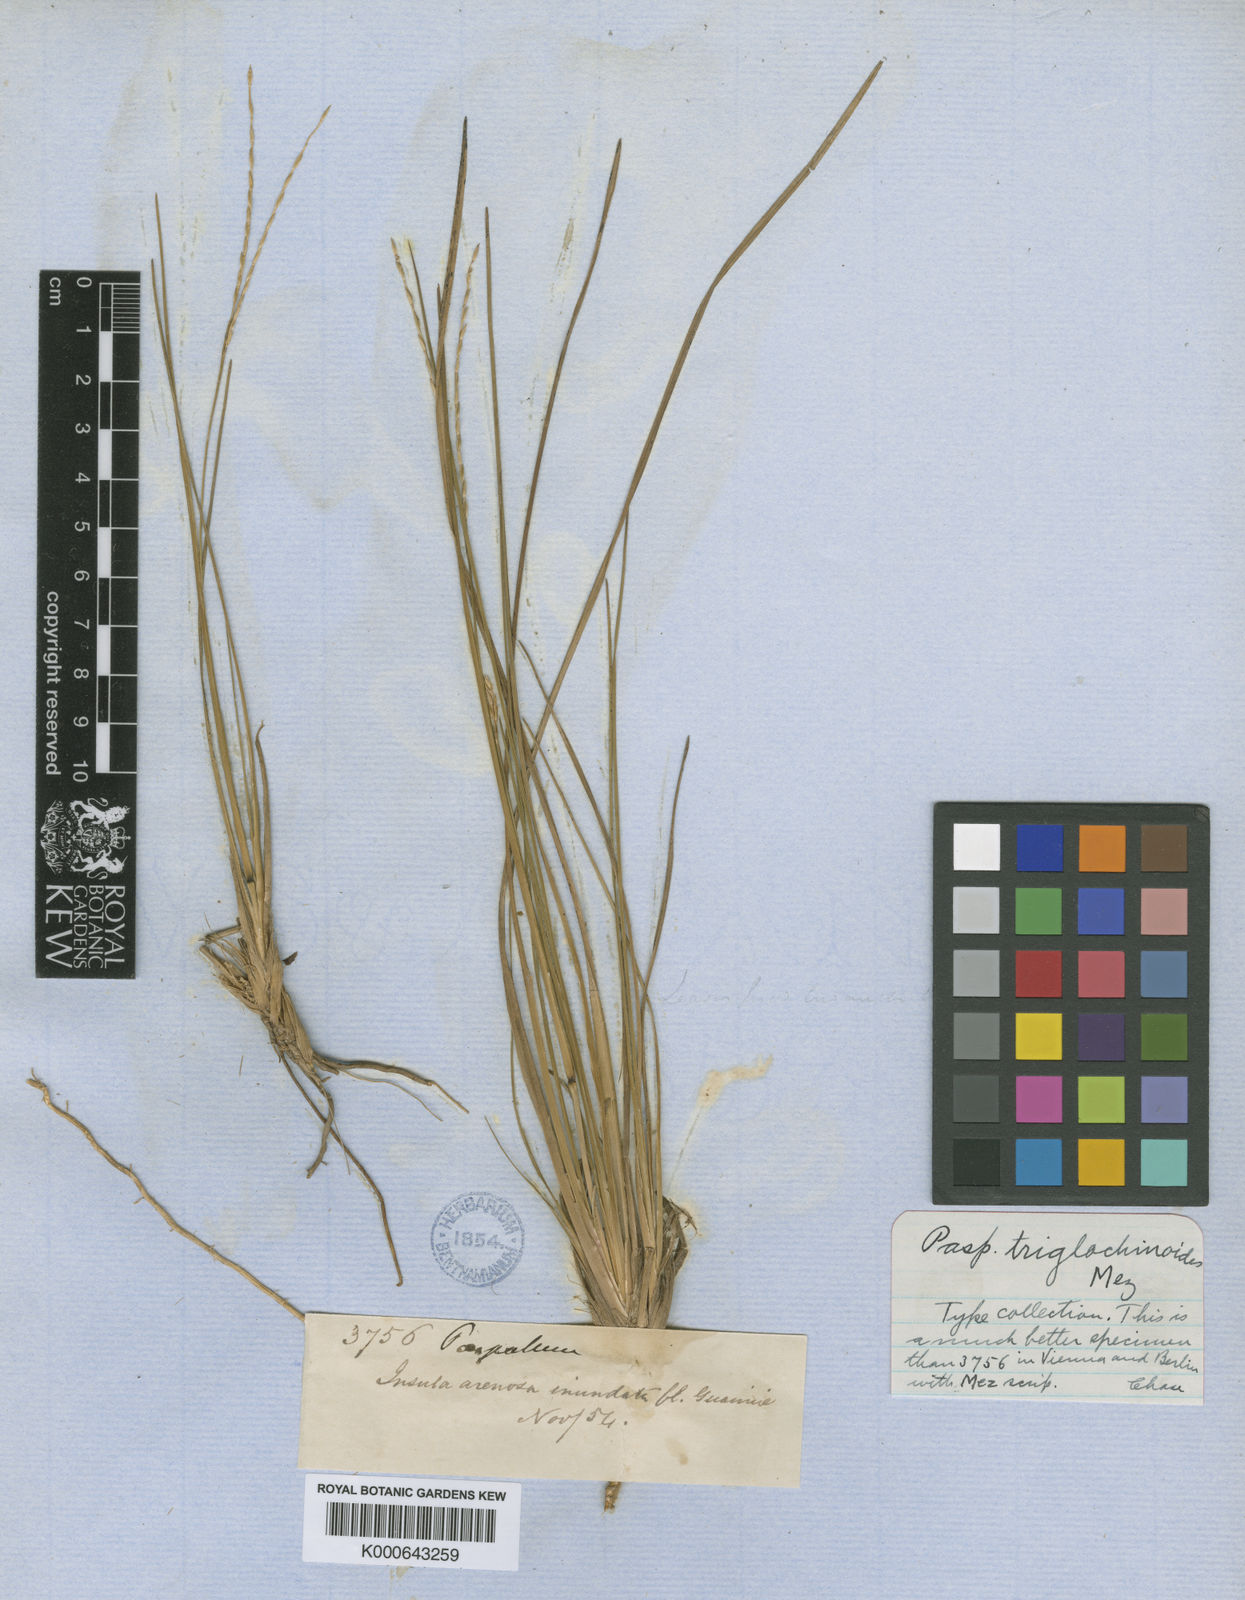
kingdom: Plantae
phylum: Tracheophyta
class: Liliopsida
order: Poales
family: Poaceae
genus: Axonopus
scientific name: Axonopus triglochinoides
